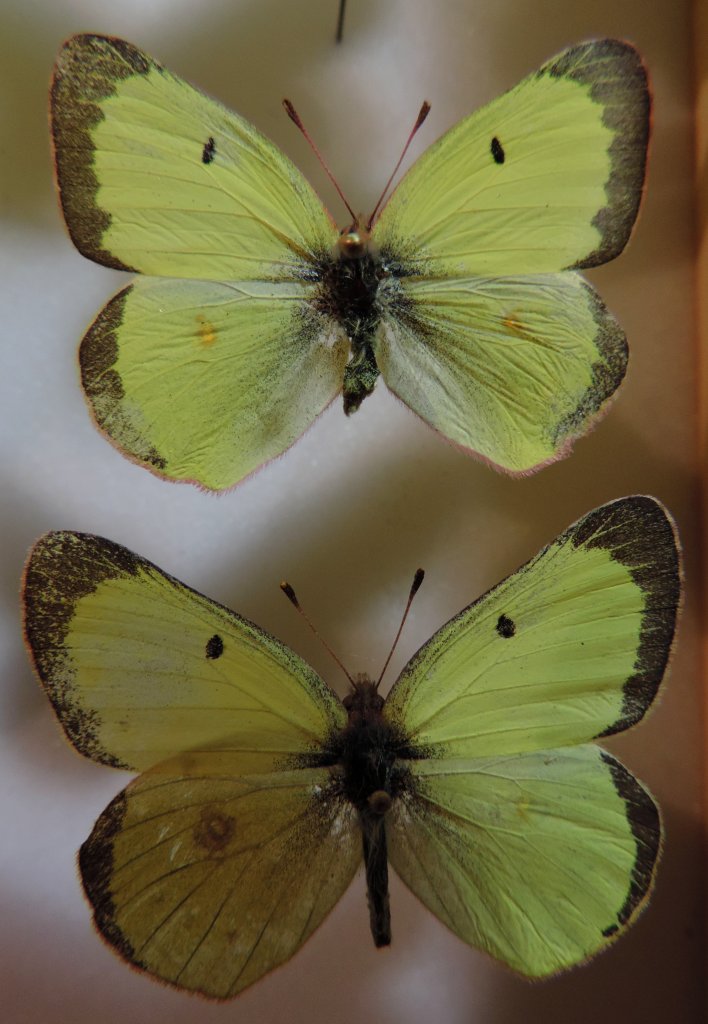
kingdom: Animalia
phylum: Arthropoda
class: Insecta
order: Lepidoptera
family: Pieridae
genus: Colias
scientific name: Colias philodice
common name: Clouded Sulphur
